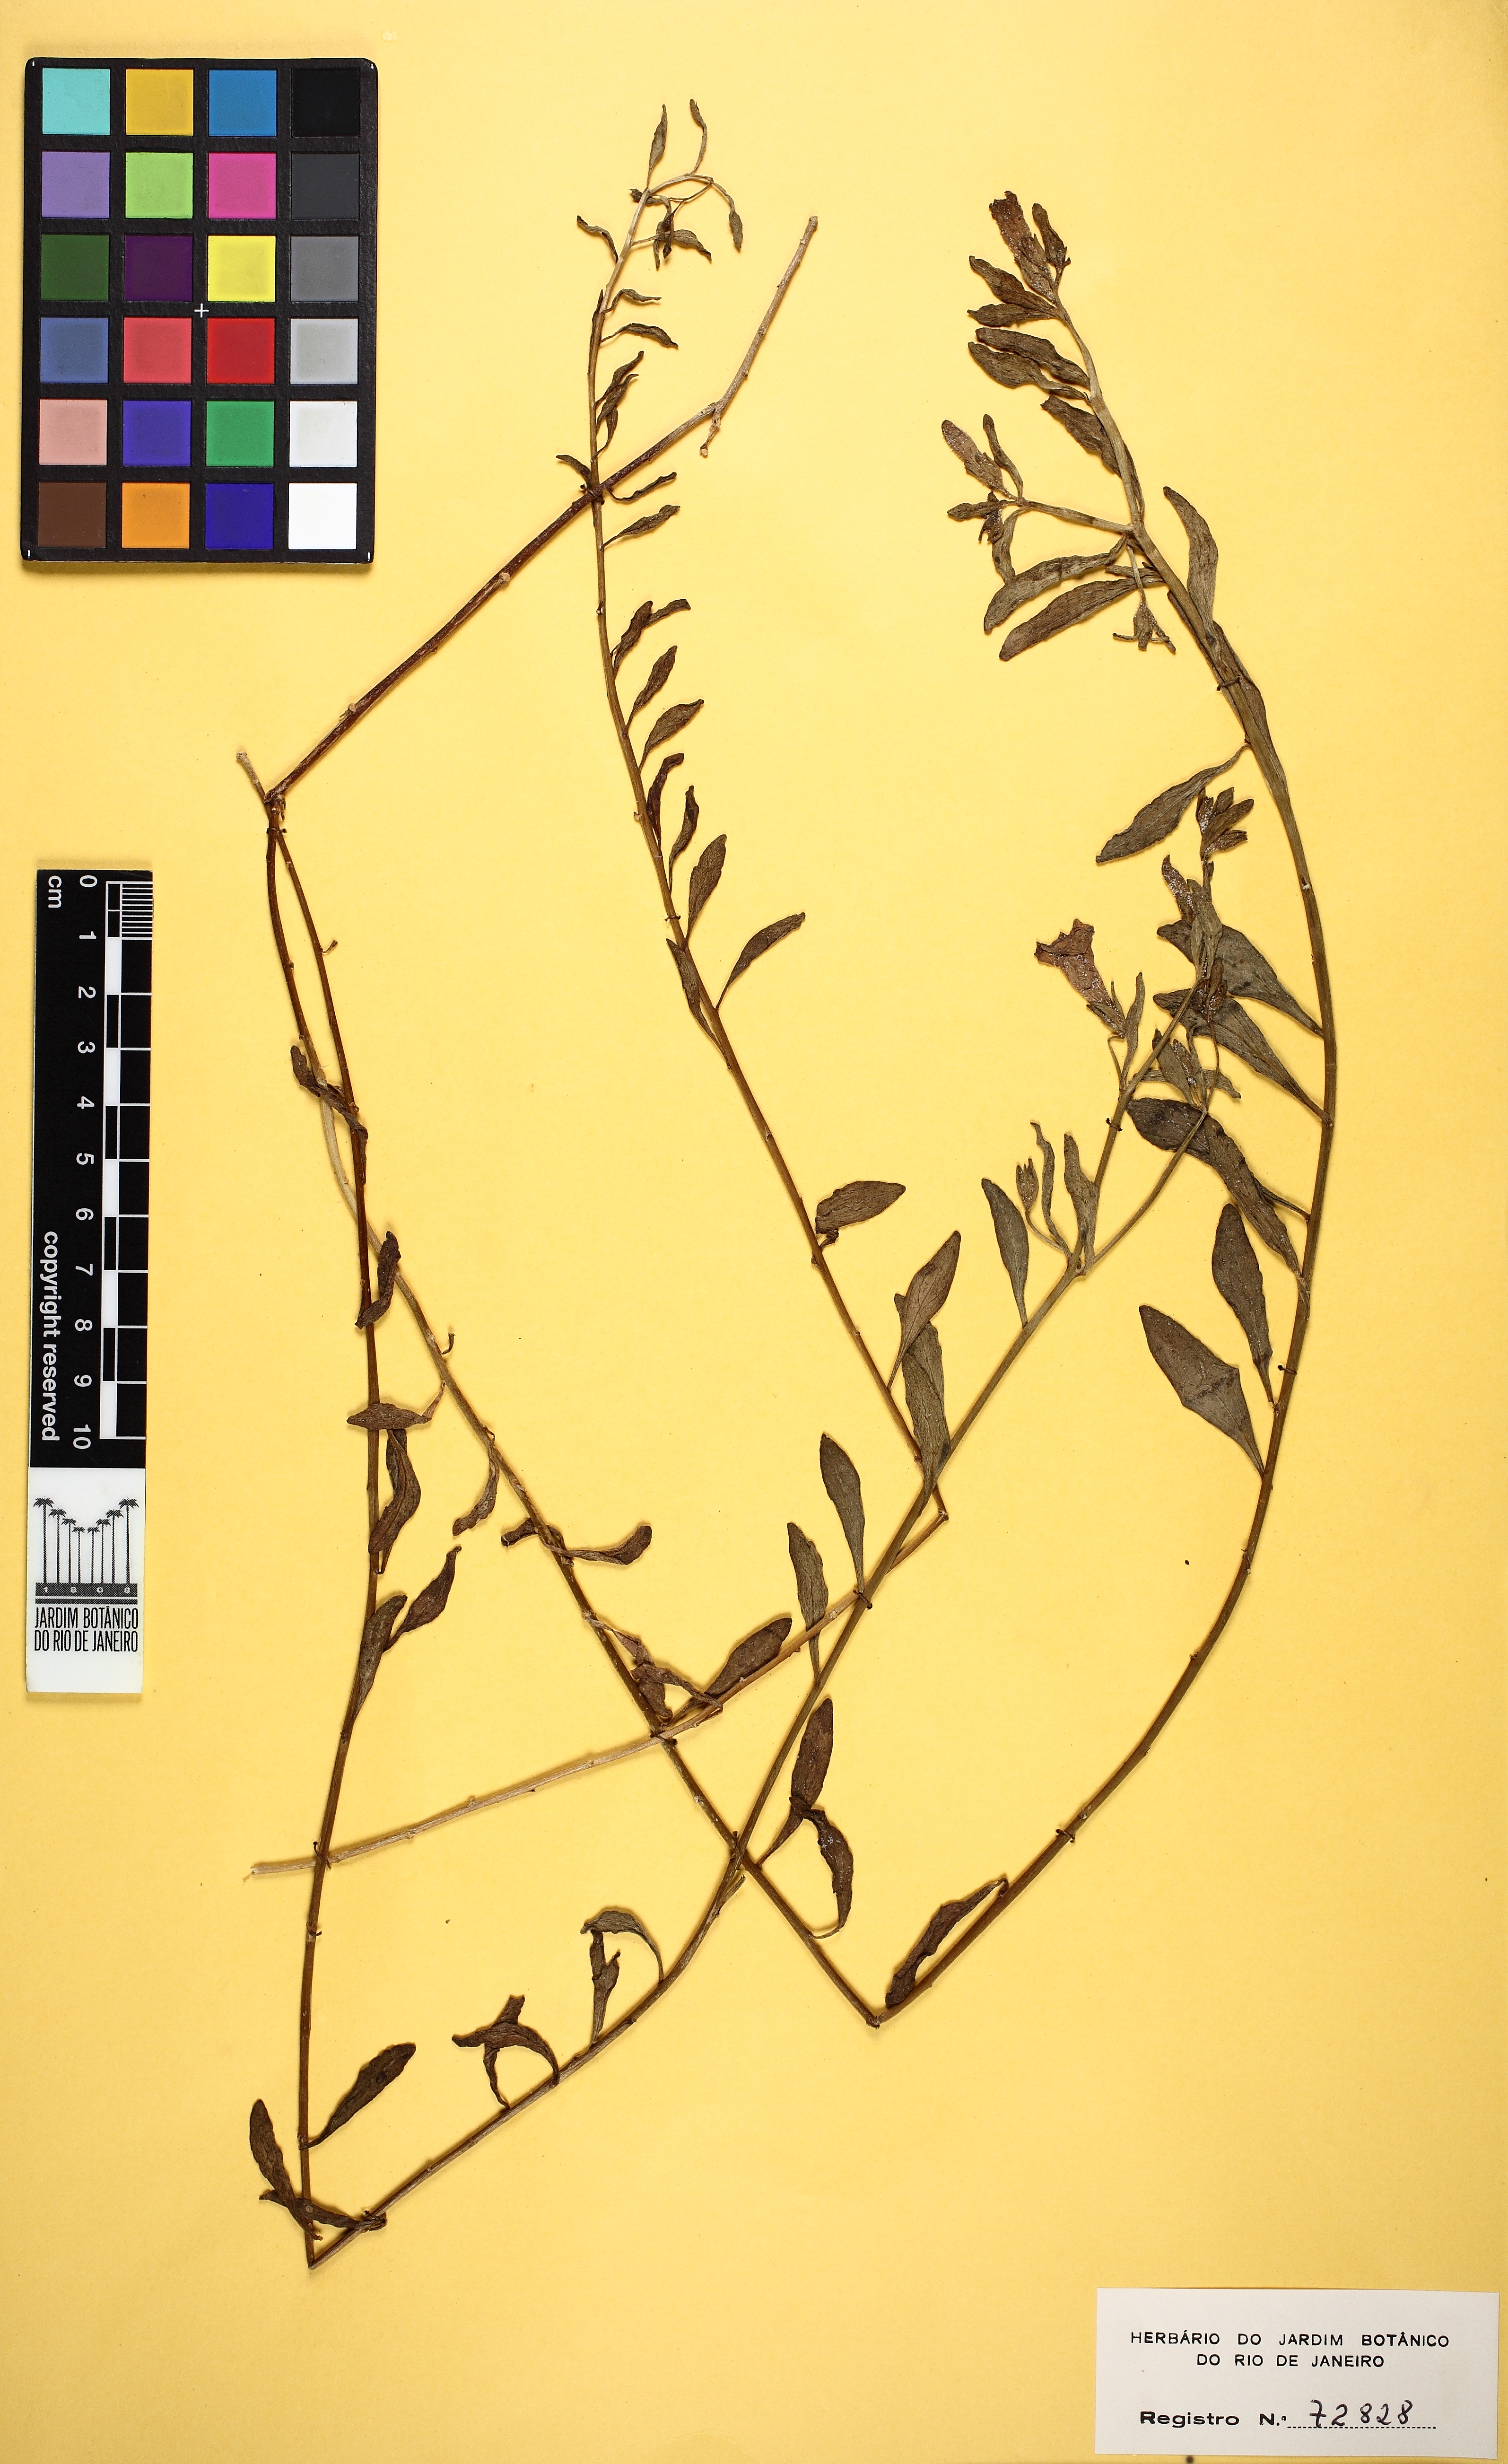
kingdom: Plantae
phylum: Tracheophyta
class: Magnoliopsida
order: Solanales
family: Solanaceae
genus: Petunia
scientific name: Petunia integrifolia
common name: Violet-flower petunia
